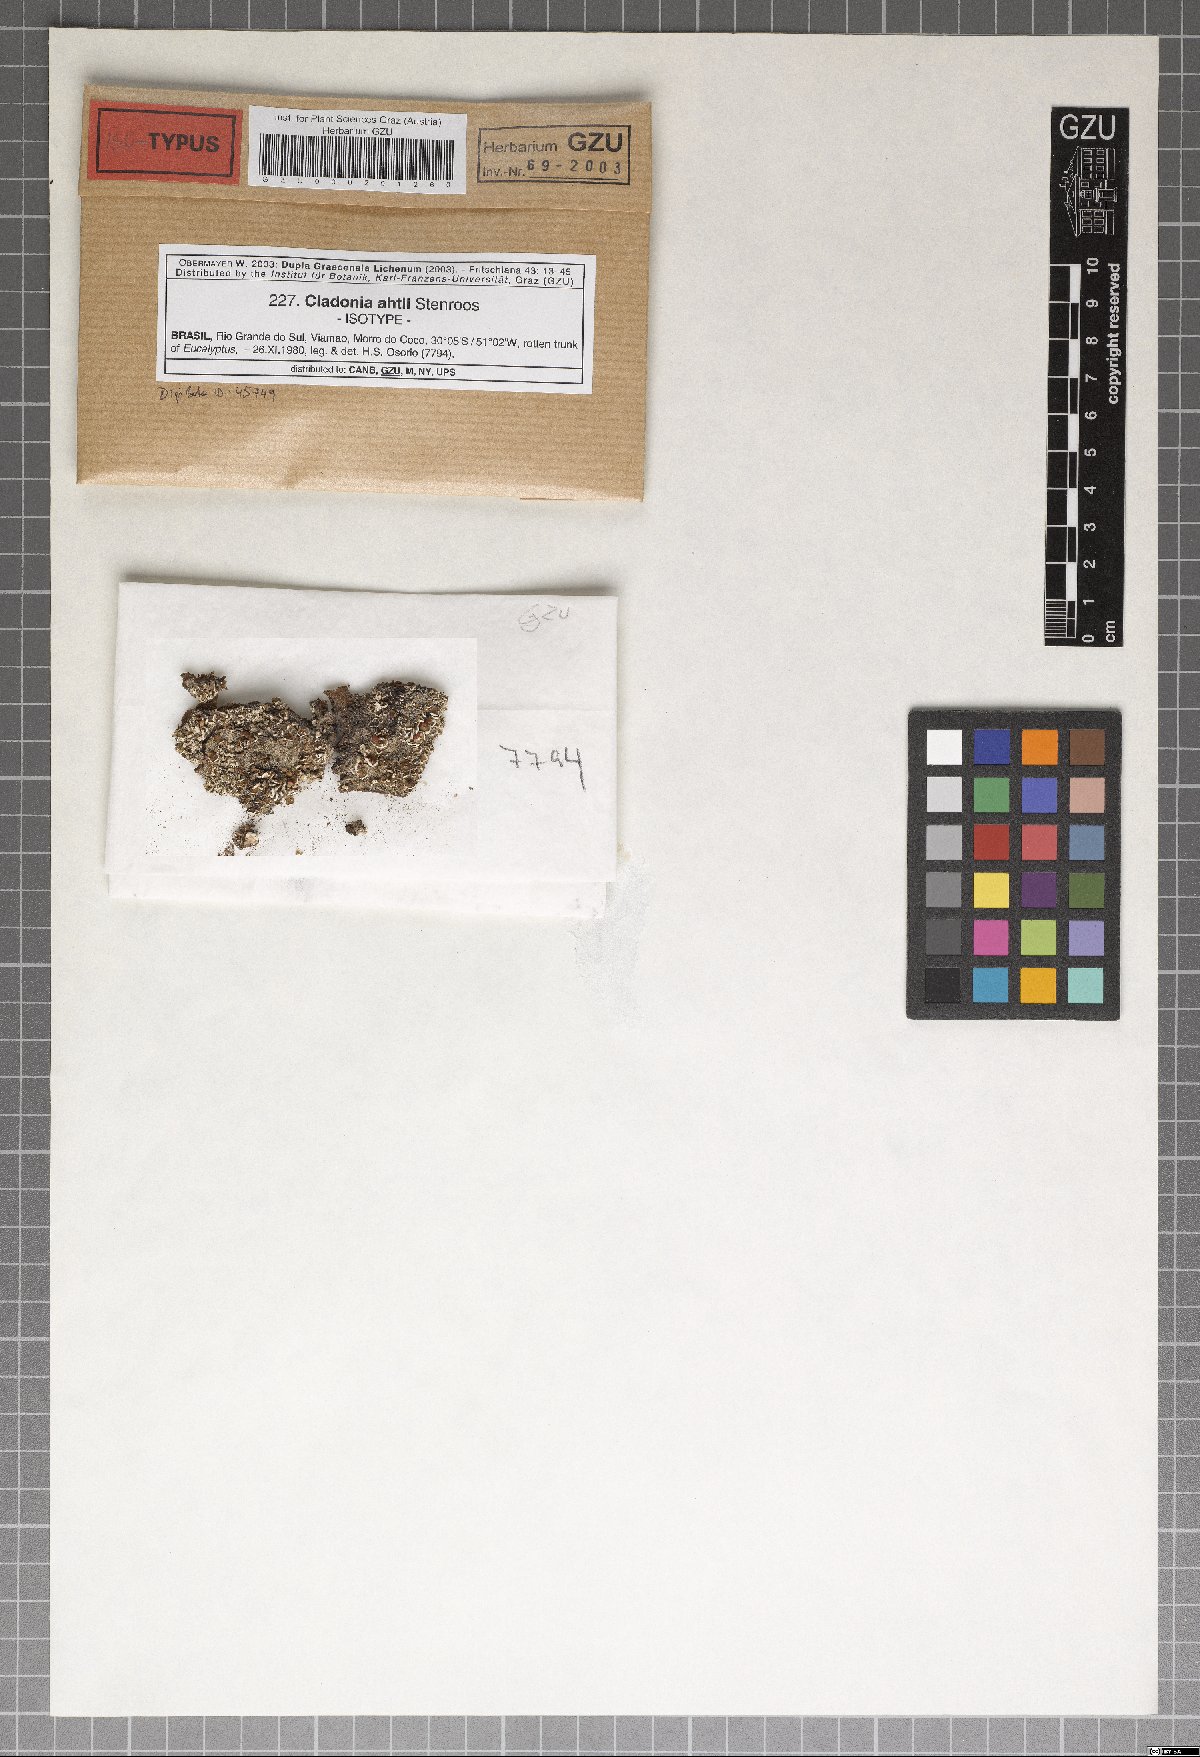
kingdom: Plantae
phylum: Marchantiophyta
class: Marchantiopsida
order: Marchantiales
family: Monocleaceae
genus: Monoclea
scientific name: Monoclea
